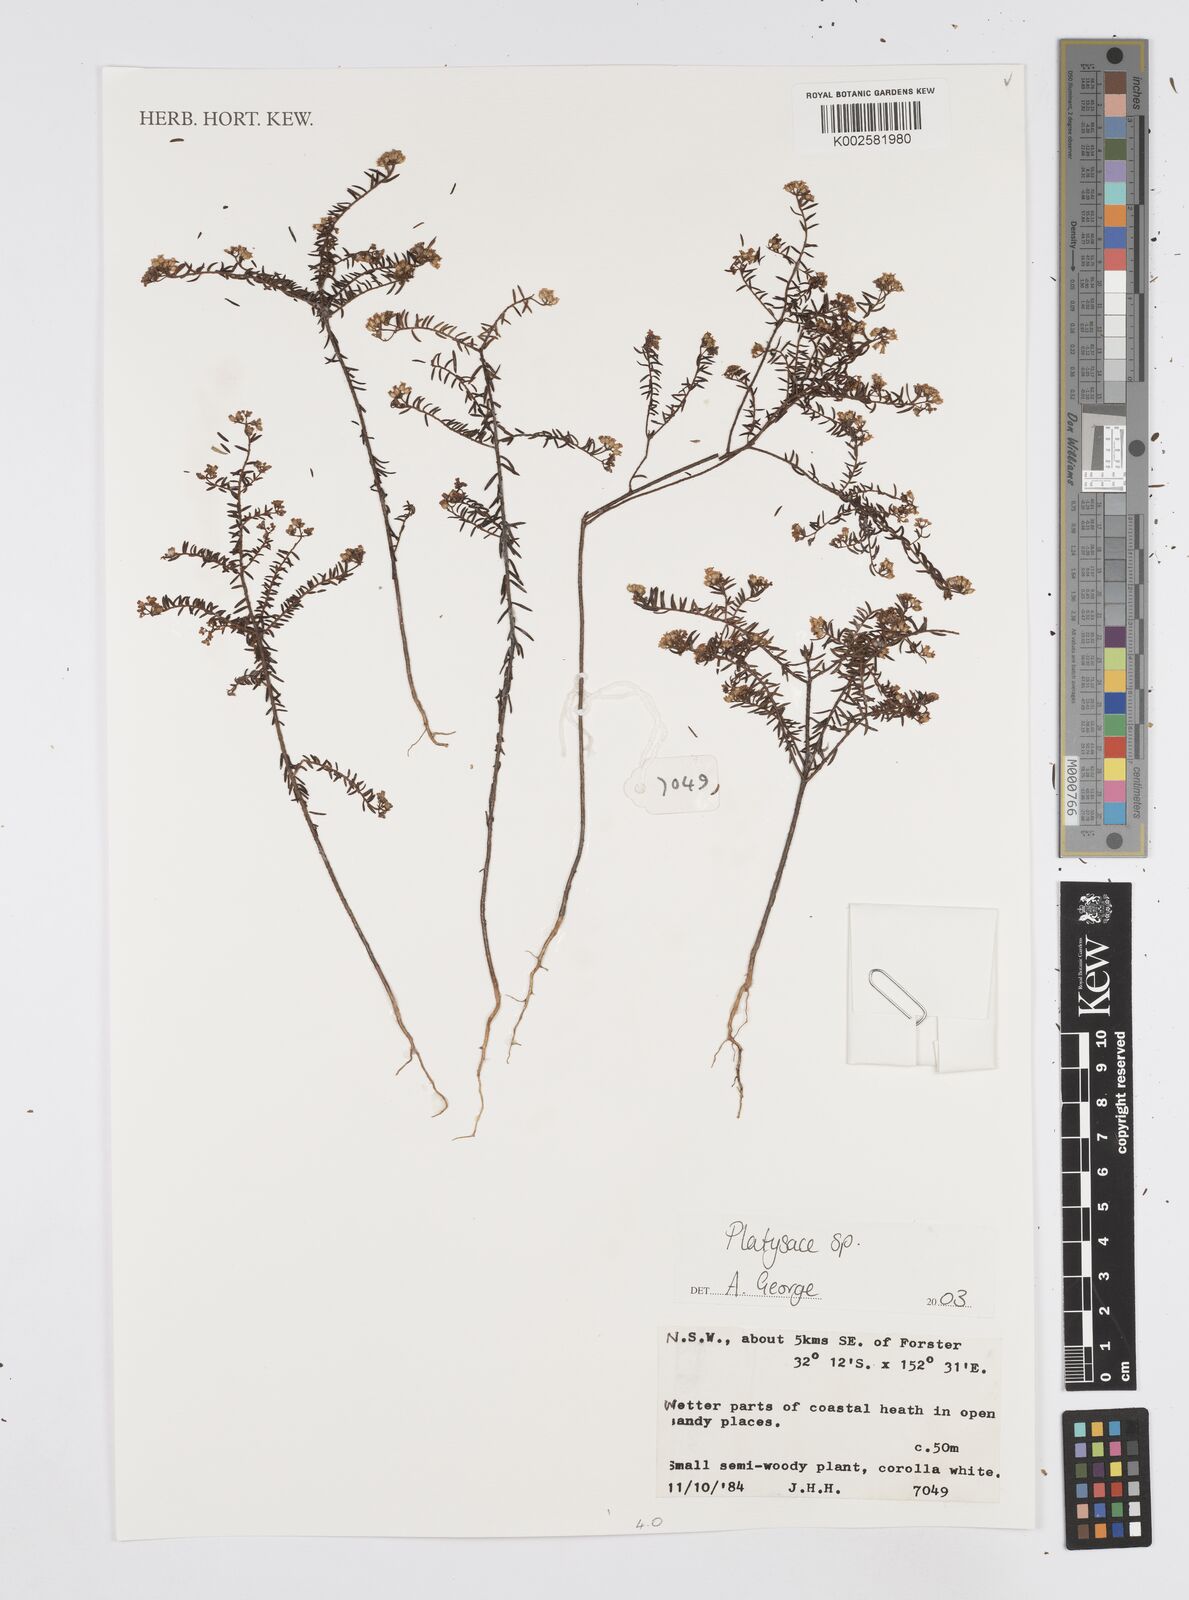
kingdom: Plantae
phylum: Tracheophyta
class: Magnoliopsida
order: Apiales
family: Apiaceae
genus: Platysace
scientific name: Platysace
